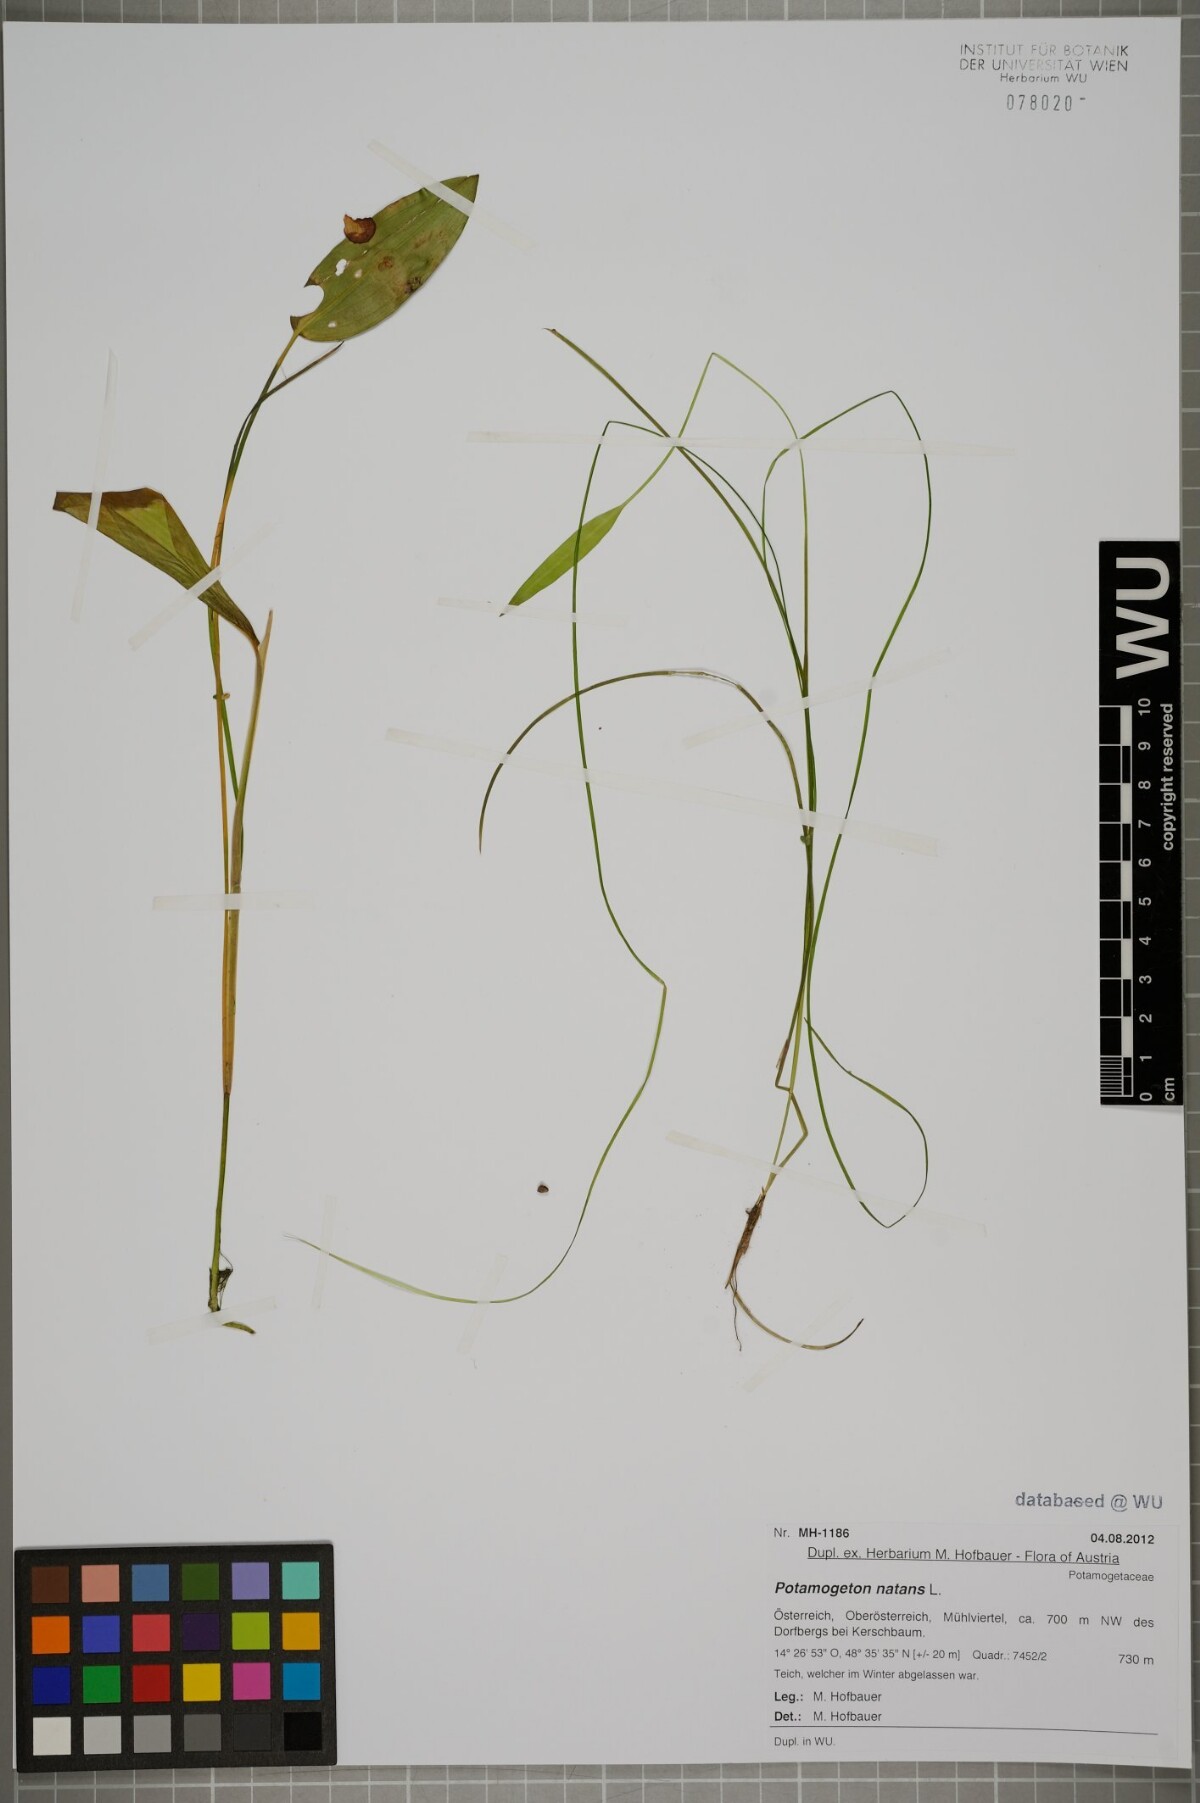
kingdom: Plantae
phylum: Tracheophyta
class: Liliopsida
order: Alismatales
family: Potamogetonaceae
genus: Potamogeton
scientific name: Potamogeton natans
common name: Broad-leaved pondweed
